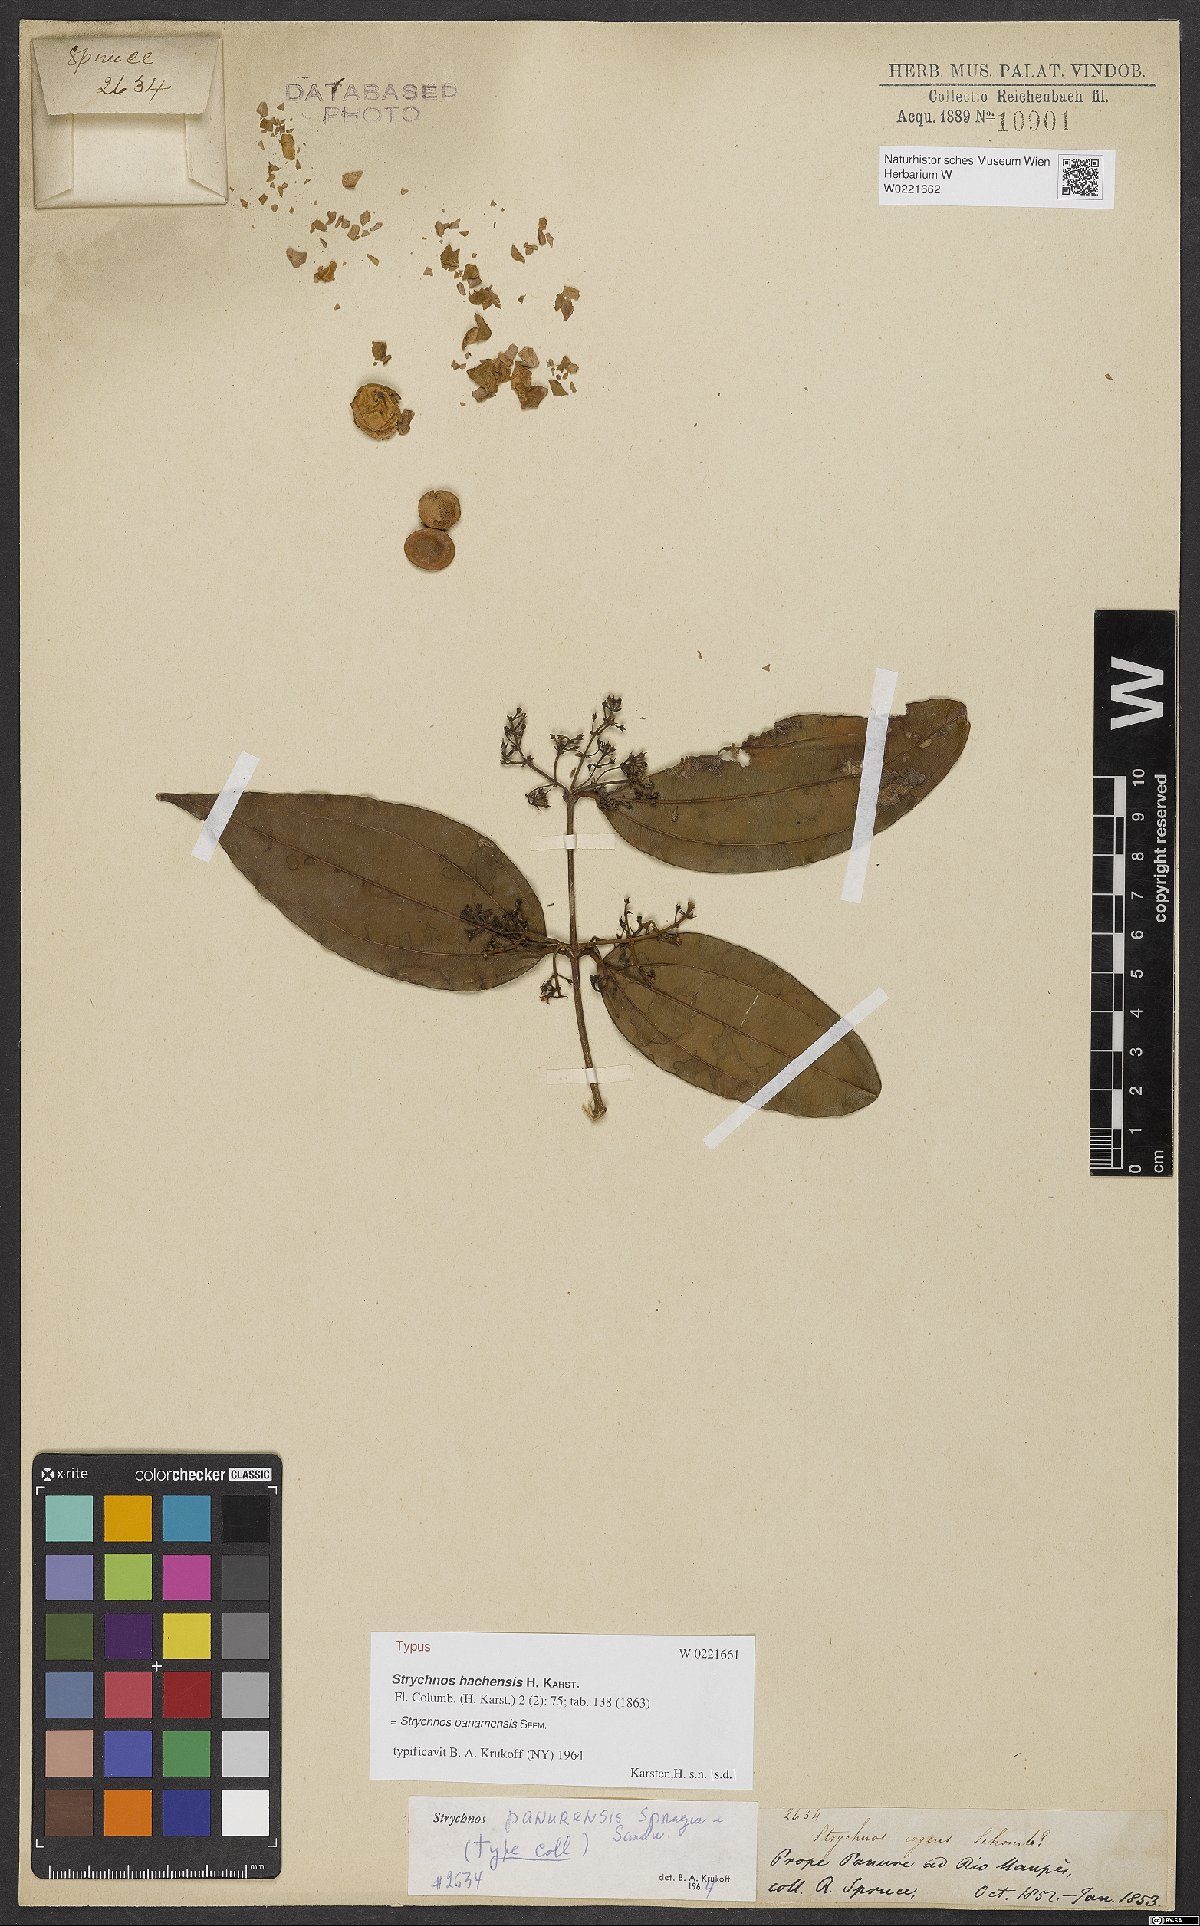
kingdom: Plantae
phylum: Tracheophyta
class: Magnoliopsida
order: Gentianales
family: Loganiaceae
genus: Strychnos
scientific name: Strychnos gubleri
